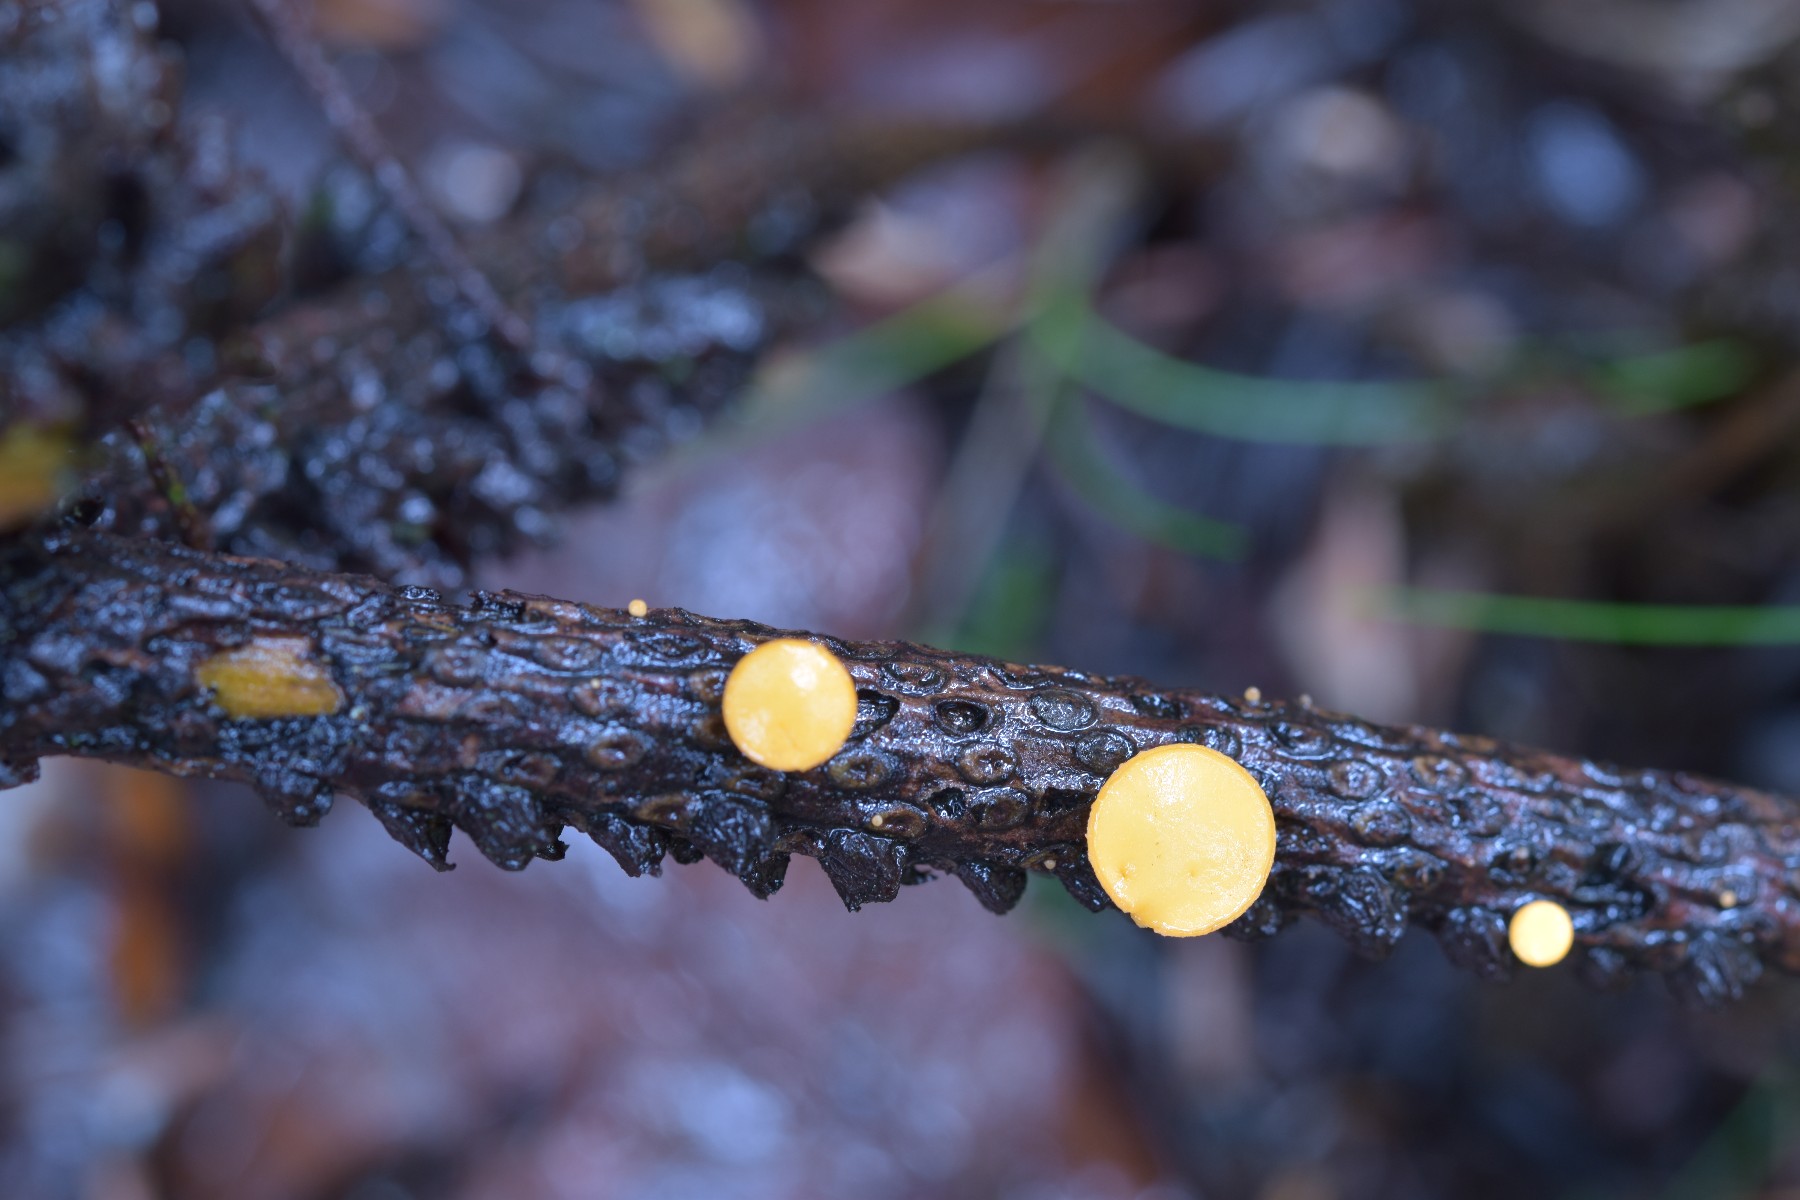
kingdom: Fungi
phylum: Ascomycota
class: Pezizomycetes
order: Pezizales
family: Sarcoscyphaceae
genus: Pithya
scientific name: Pithya vulgaris
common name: stor dukatbæger
